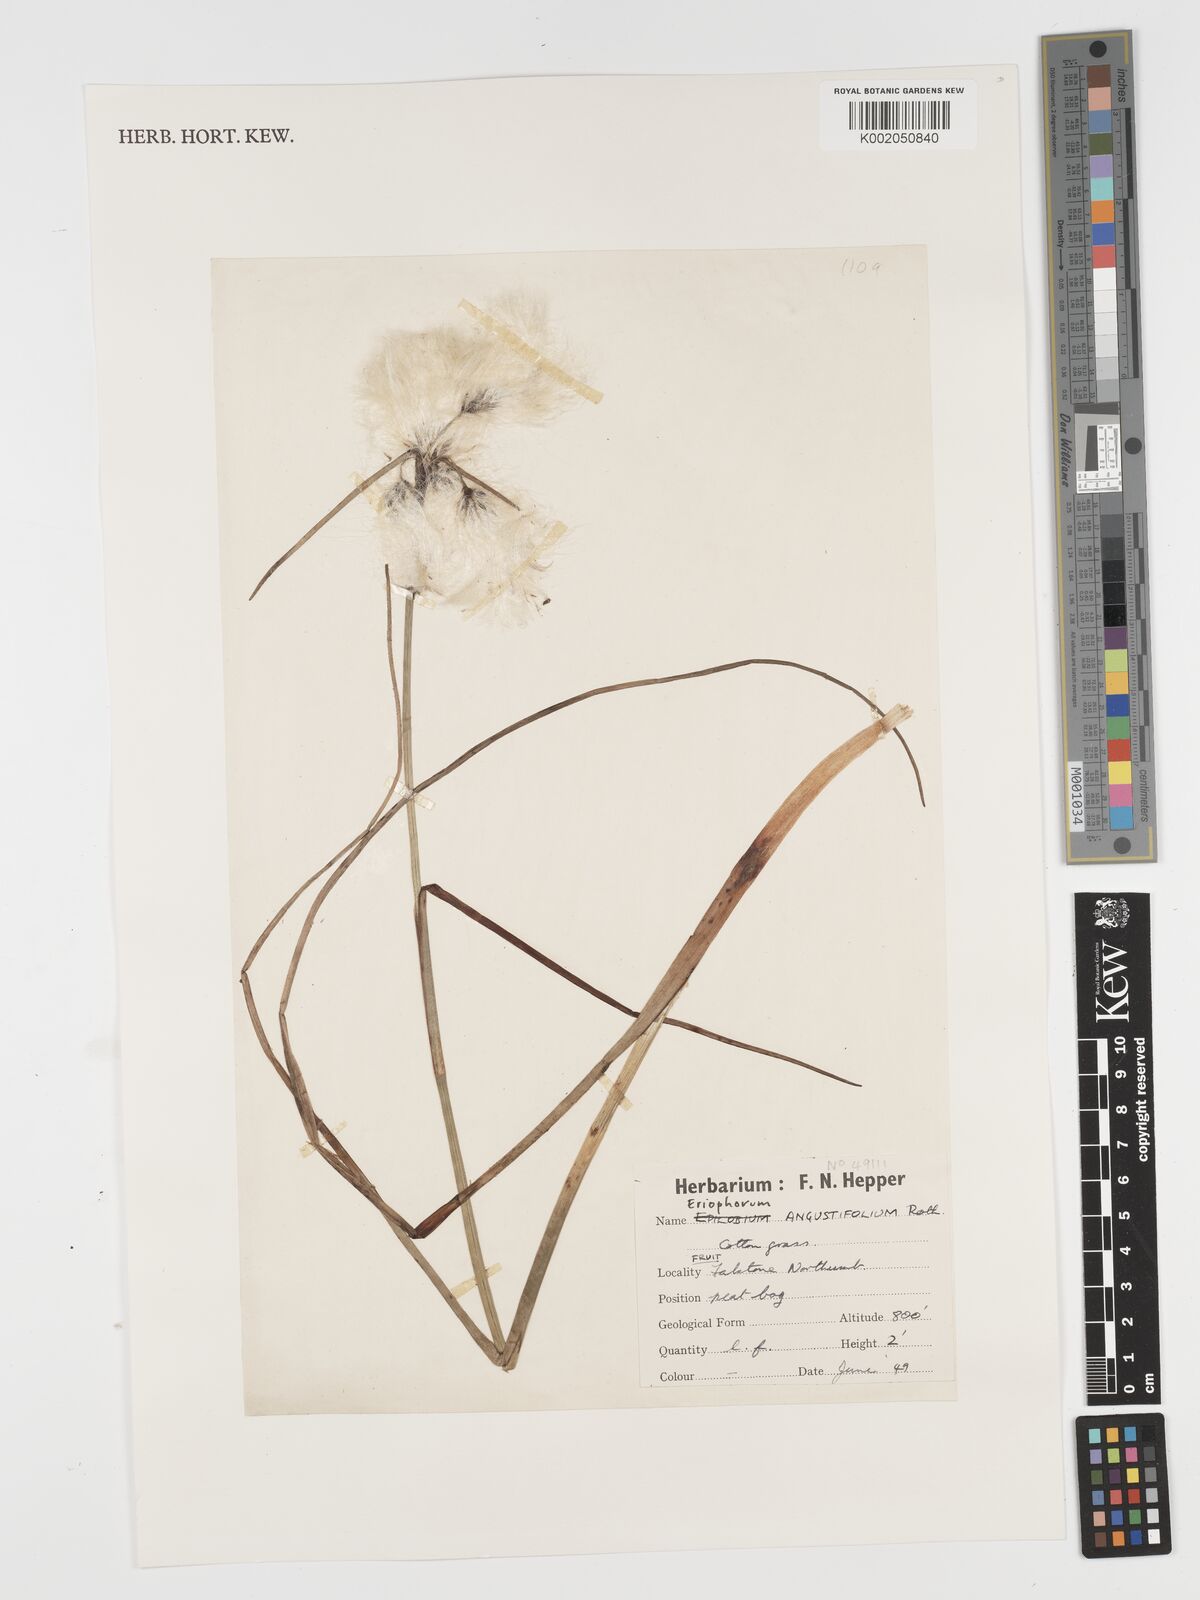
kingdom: Plantae
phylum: Tracheophyta
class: Liliopsida
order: Poales
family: Cyperaceae
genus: Eriophorum
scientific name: Eriophorum angustifolium
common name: Common cottongrass
